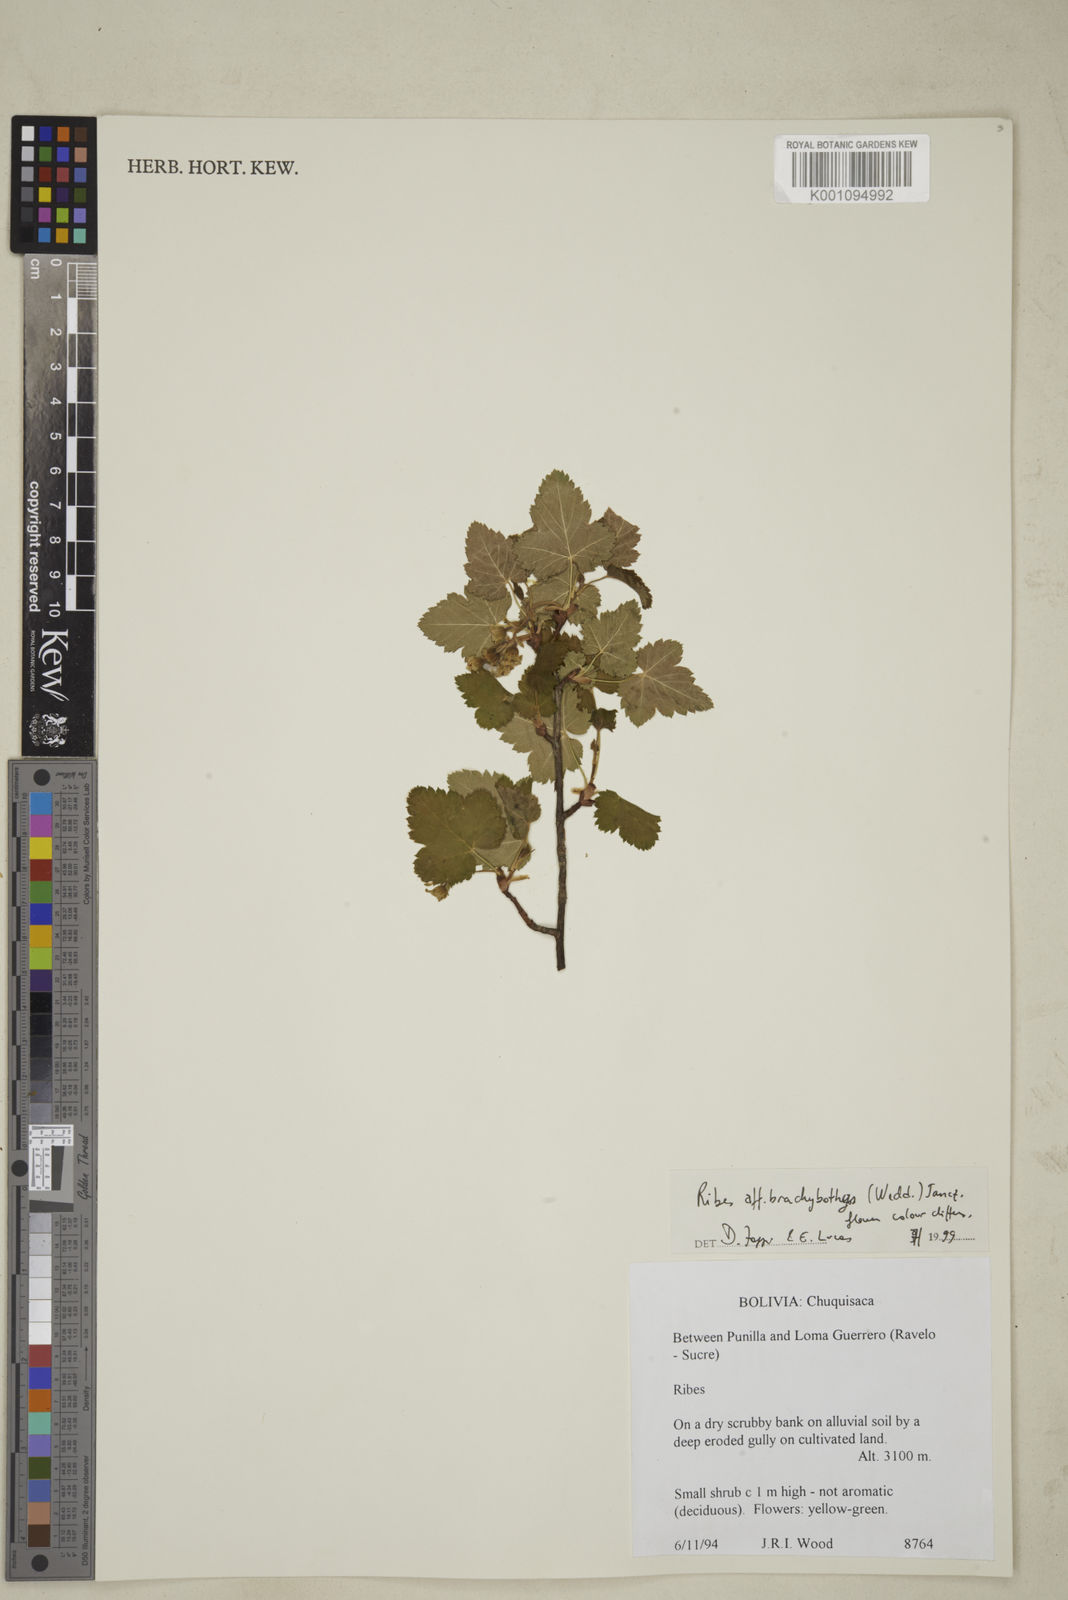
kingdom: Plantae
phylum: Tracheophyta
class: Magnoliopsida
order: Saxifragales
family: Grossulariaceae
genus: Ribes
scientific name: Ribes brachybotrys
